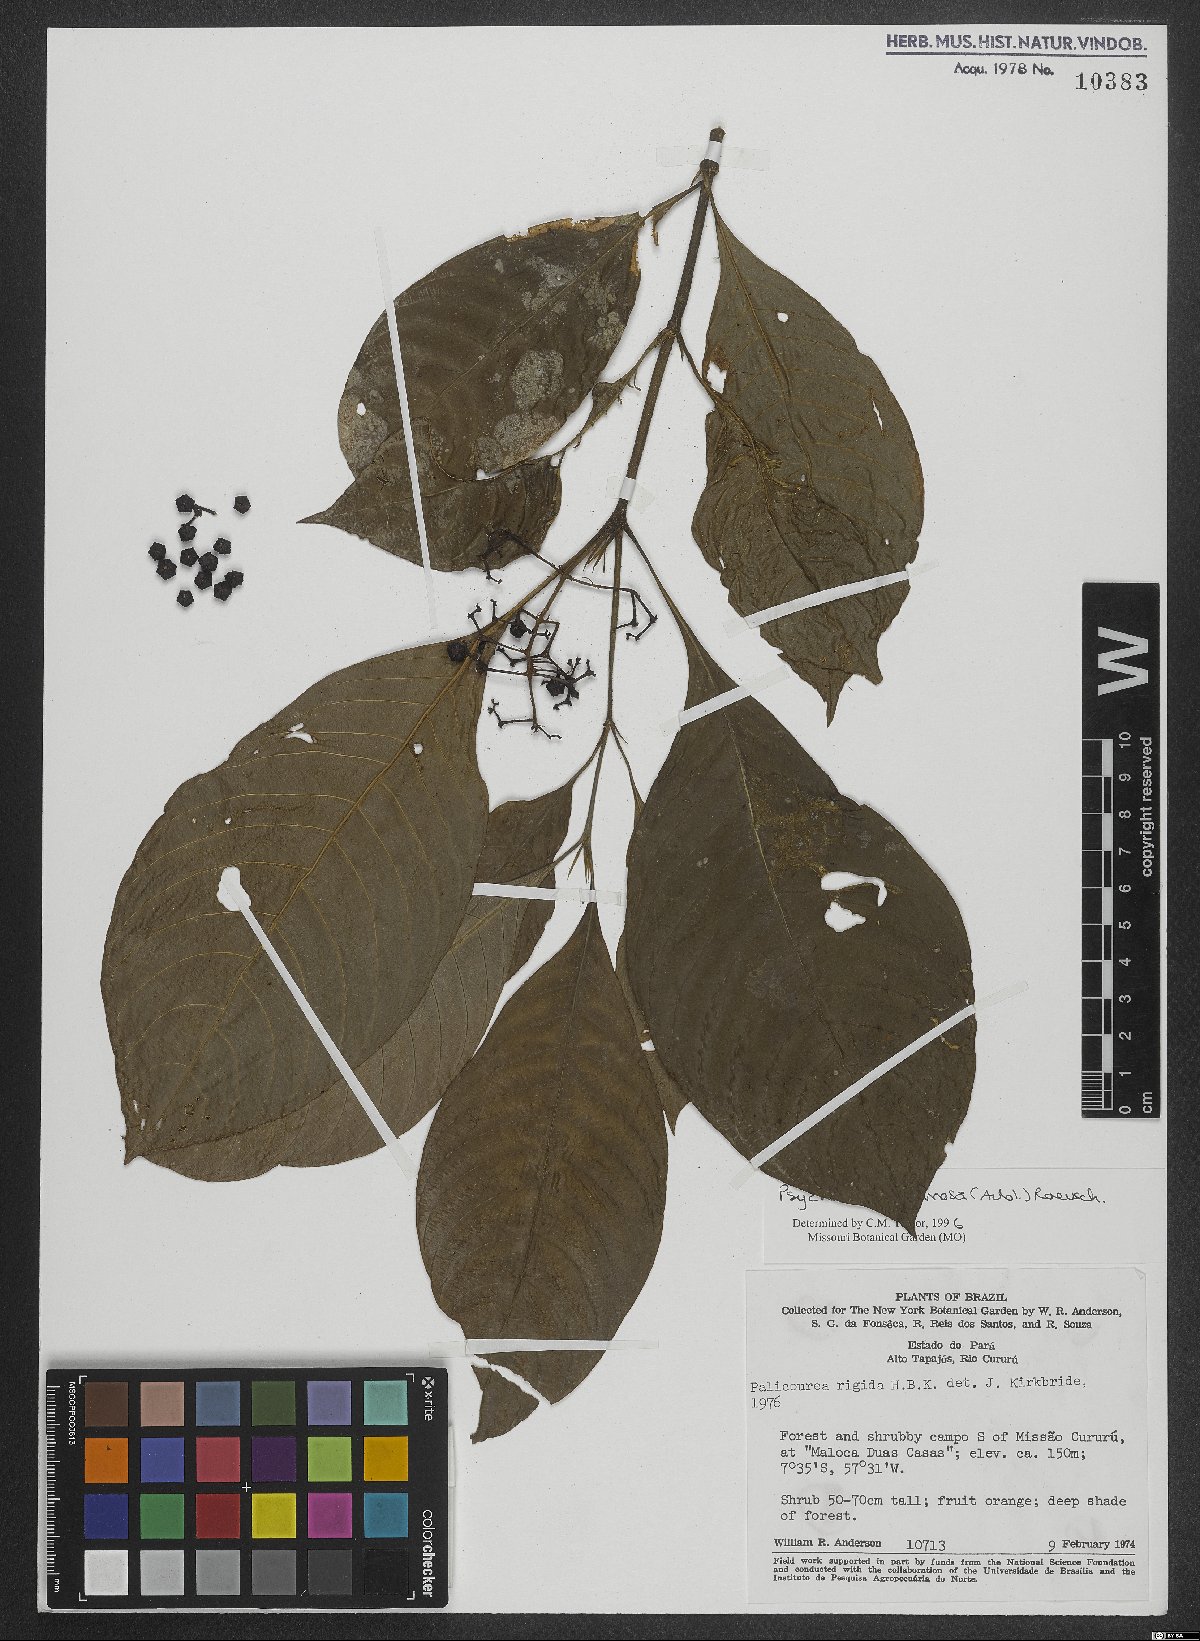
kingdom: Plantae
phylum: Tracheophyta
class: Magnoliopsida
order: Gentianales
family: Rubiaceae
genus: Palicourea
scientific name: Palicourea racemosa
